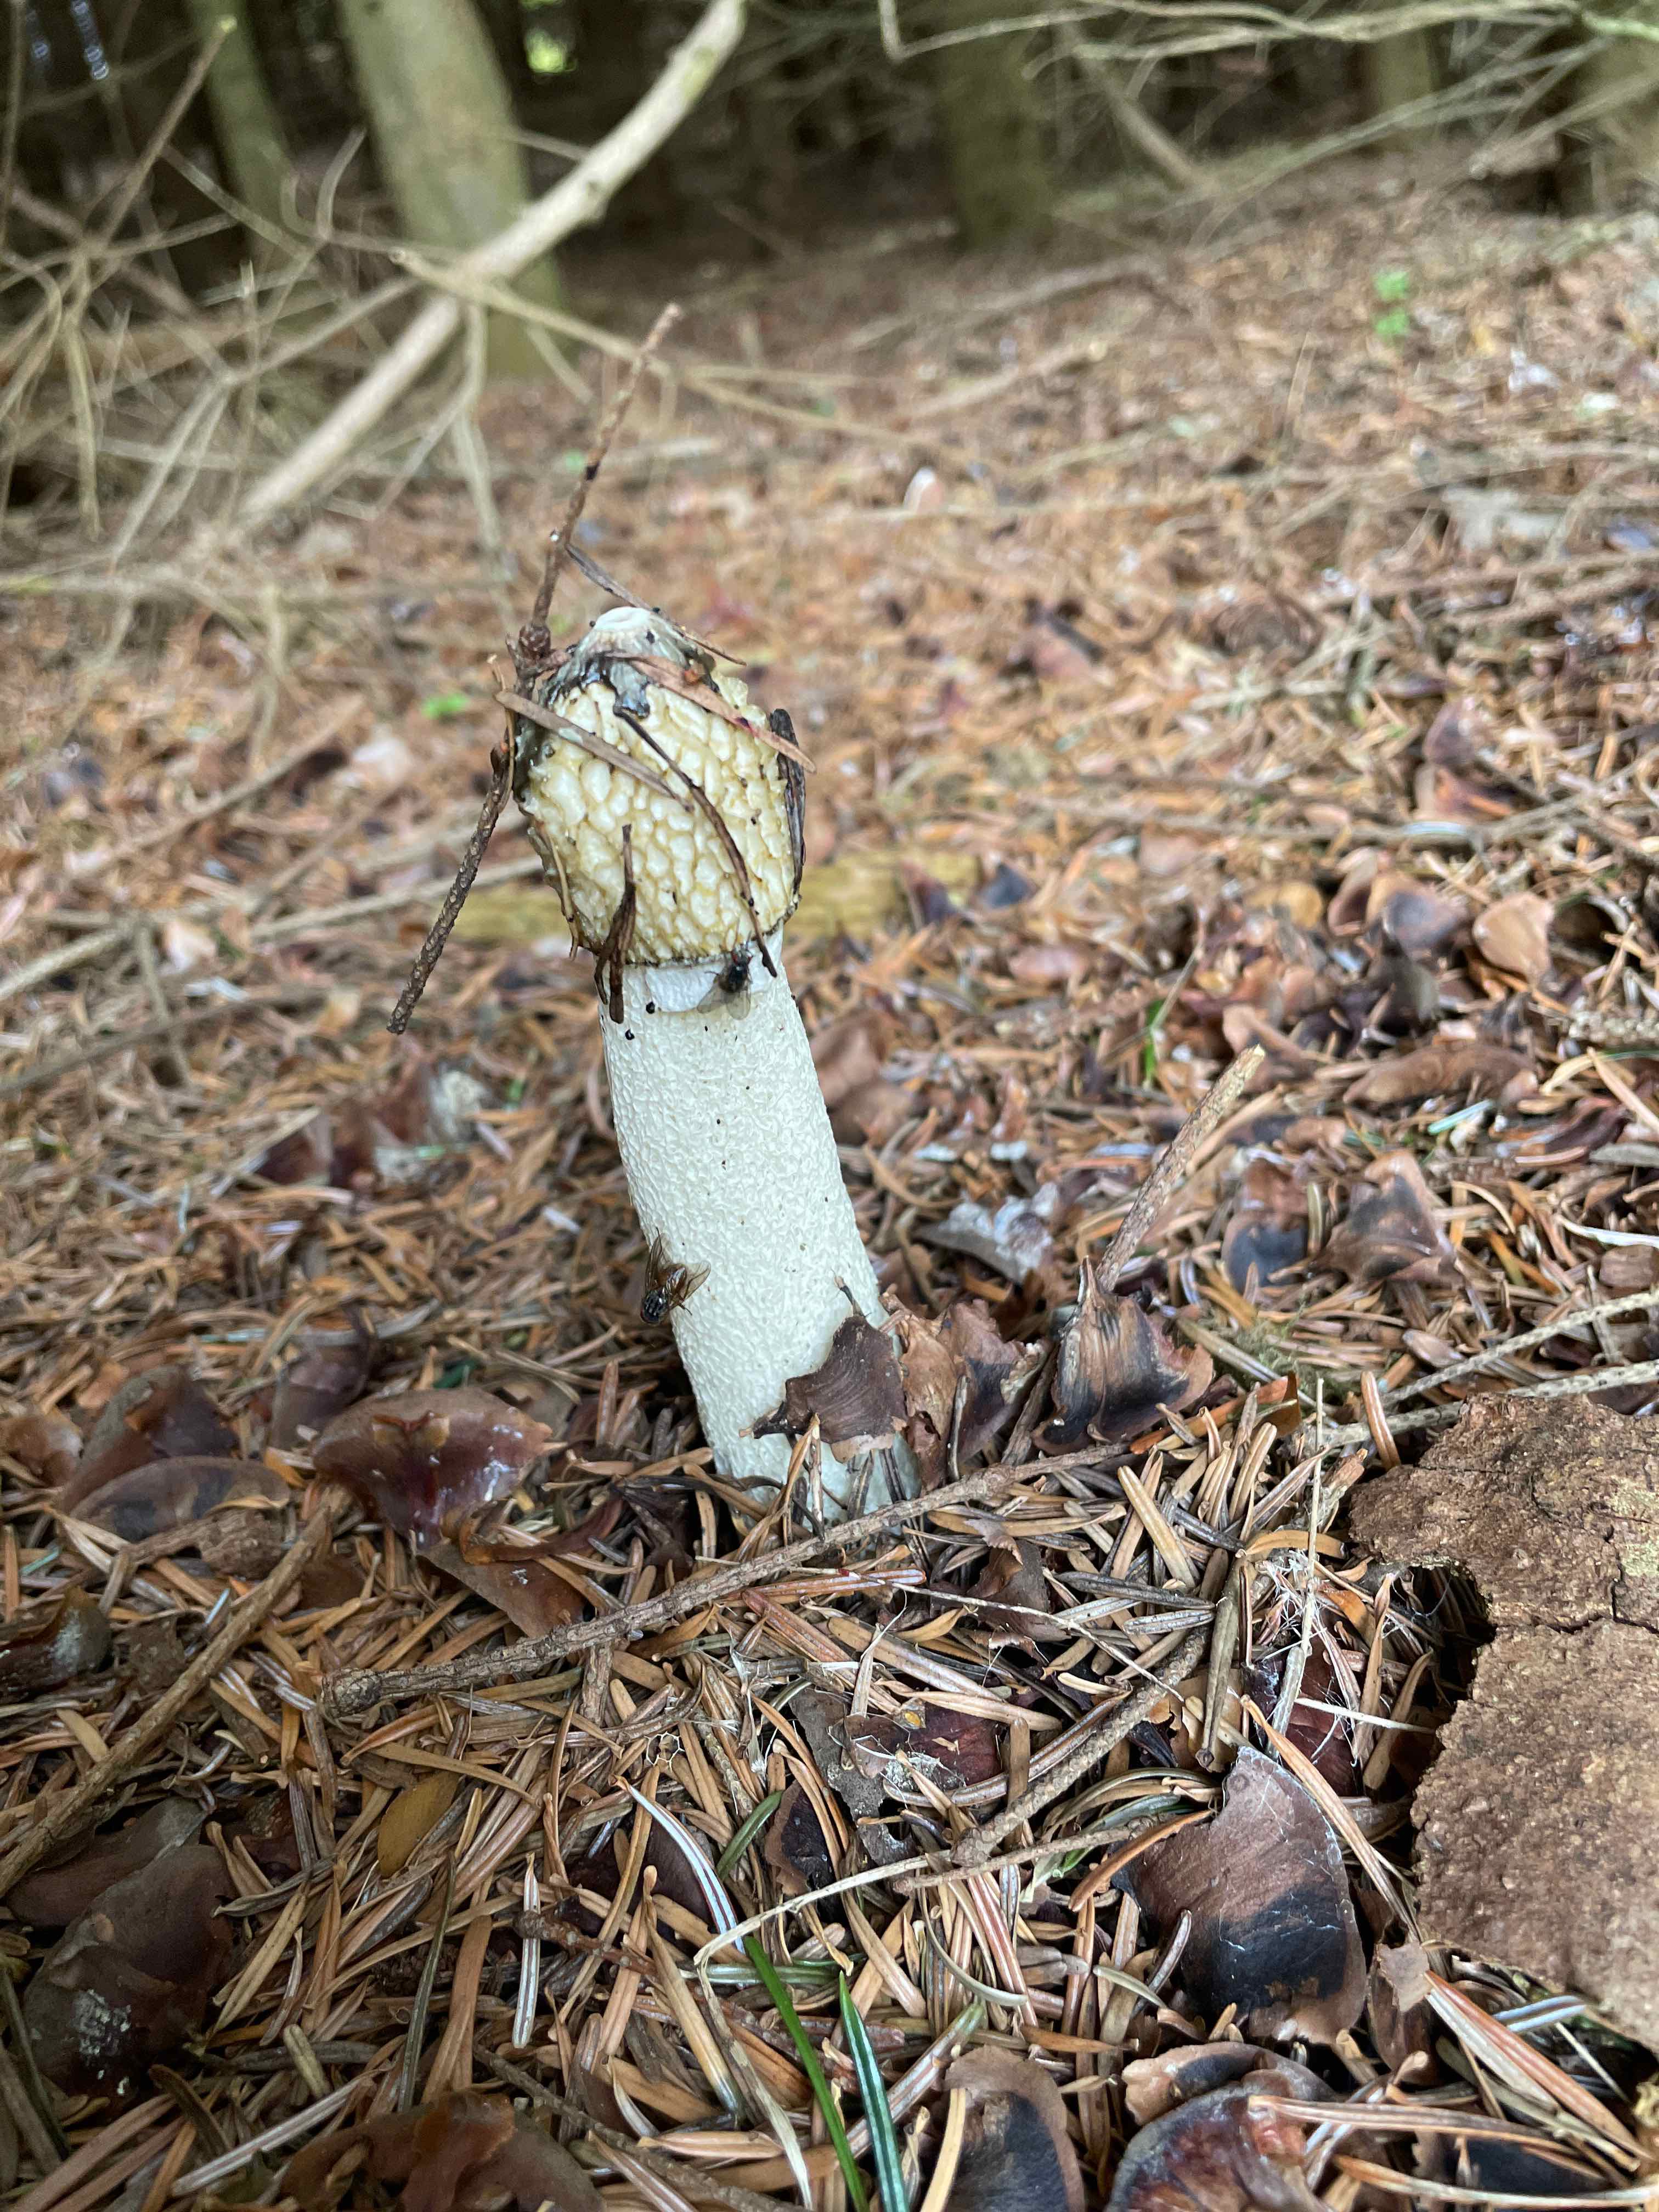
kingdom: Fungi
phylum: Basidiomycota
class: Agaricomycetes
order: Phallales
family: Phallaceae
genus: Phallus
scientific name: Phallus impudicus
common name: almindelig stinksvamp
